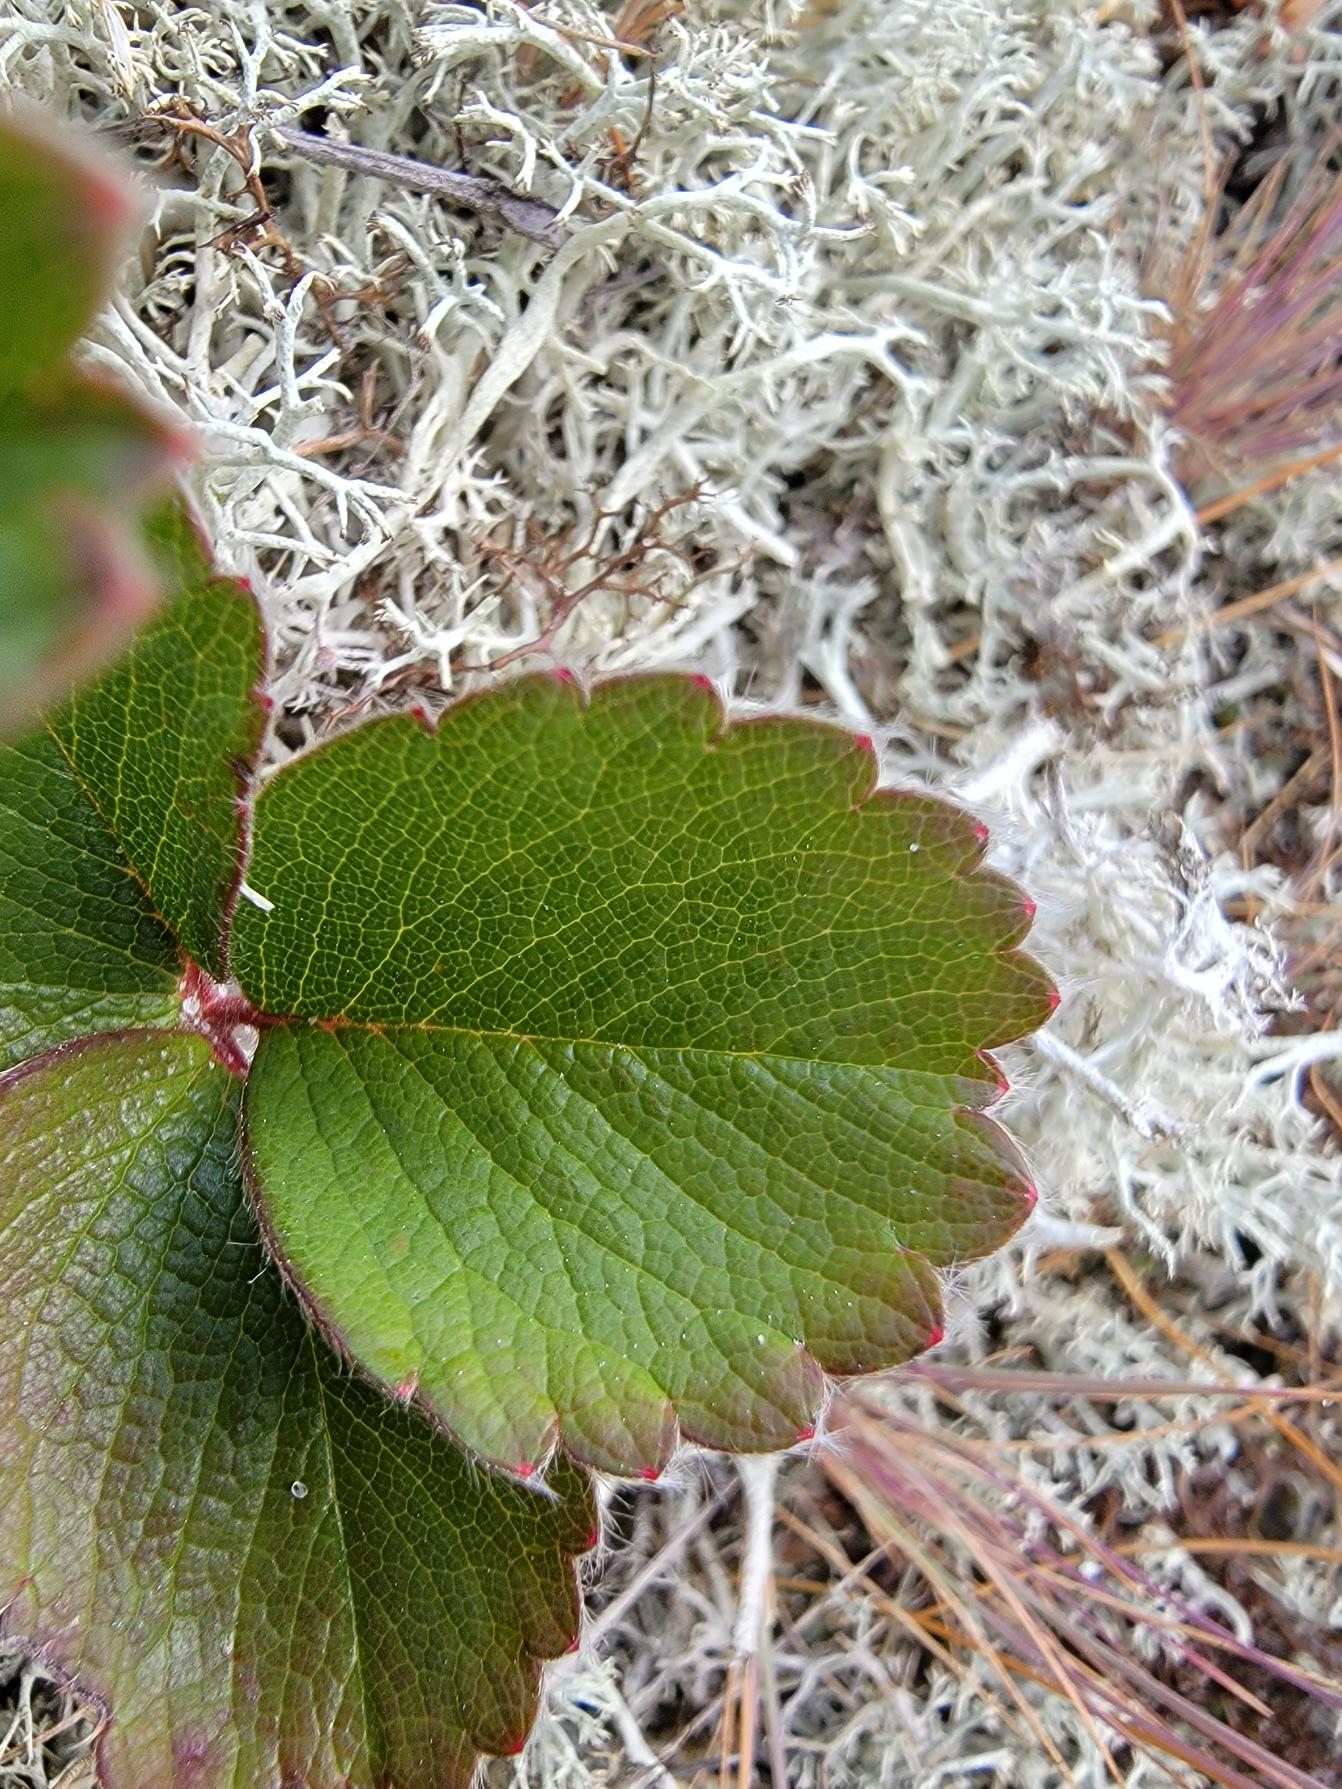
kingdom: Plantae
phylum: Tracheophyta
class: Magnoliopsida
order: Rosales
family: Rosaceae
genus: Fragaria
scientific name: Fragaria viridis
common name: Bakke-jordbær
